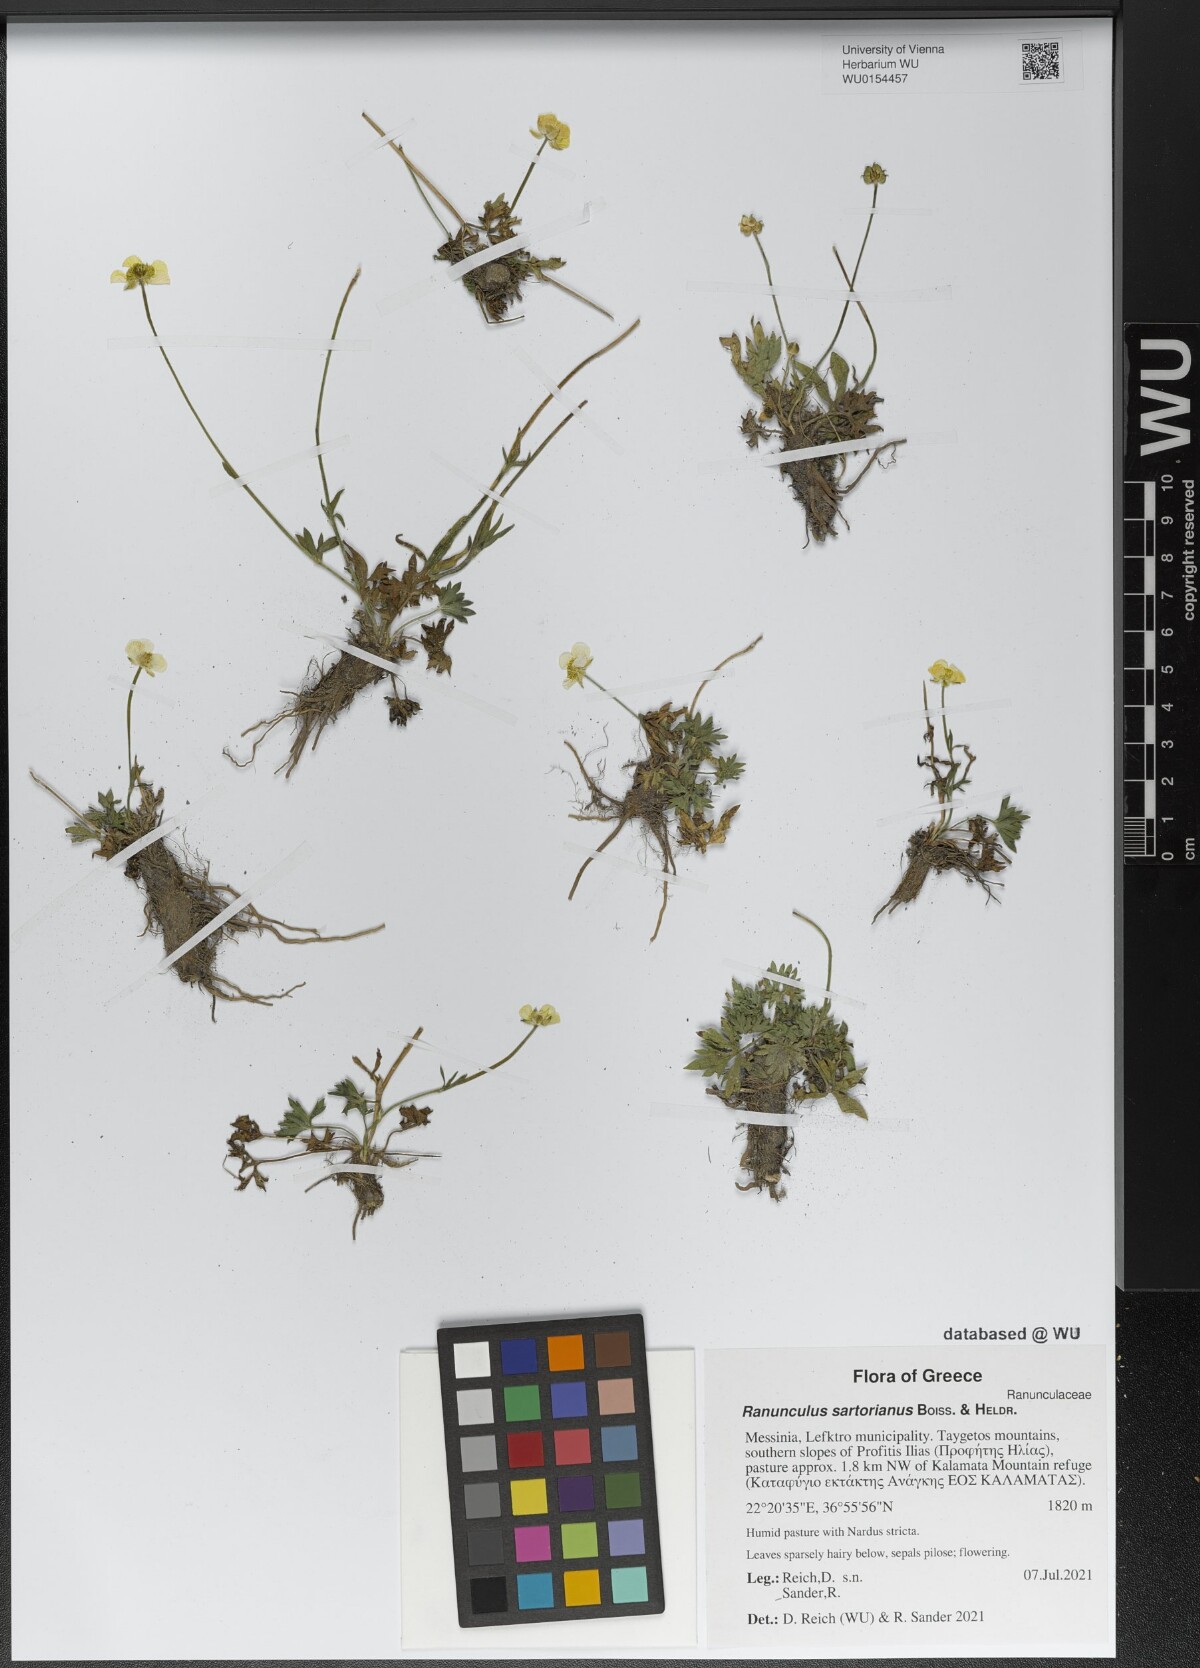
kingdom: Plantae
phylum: Tracheophyta
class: Magnoliopsida
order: Ranunculales
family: Ranunculaceae
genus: Ranunculus
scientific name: Ranunculus sartorianus
